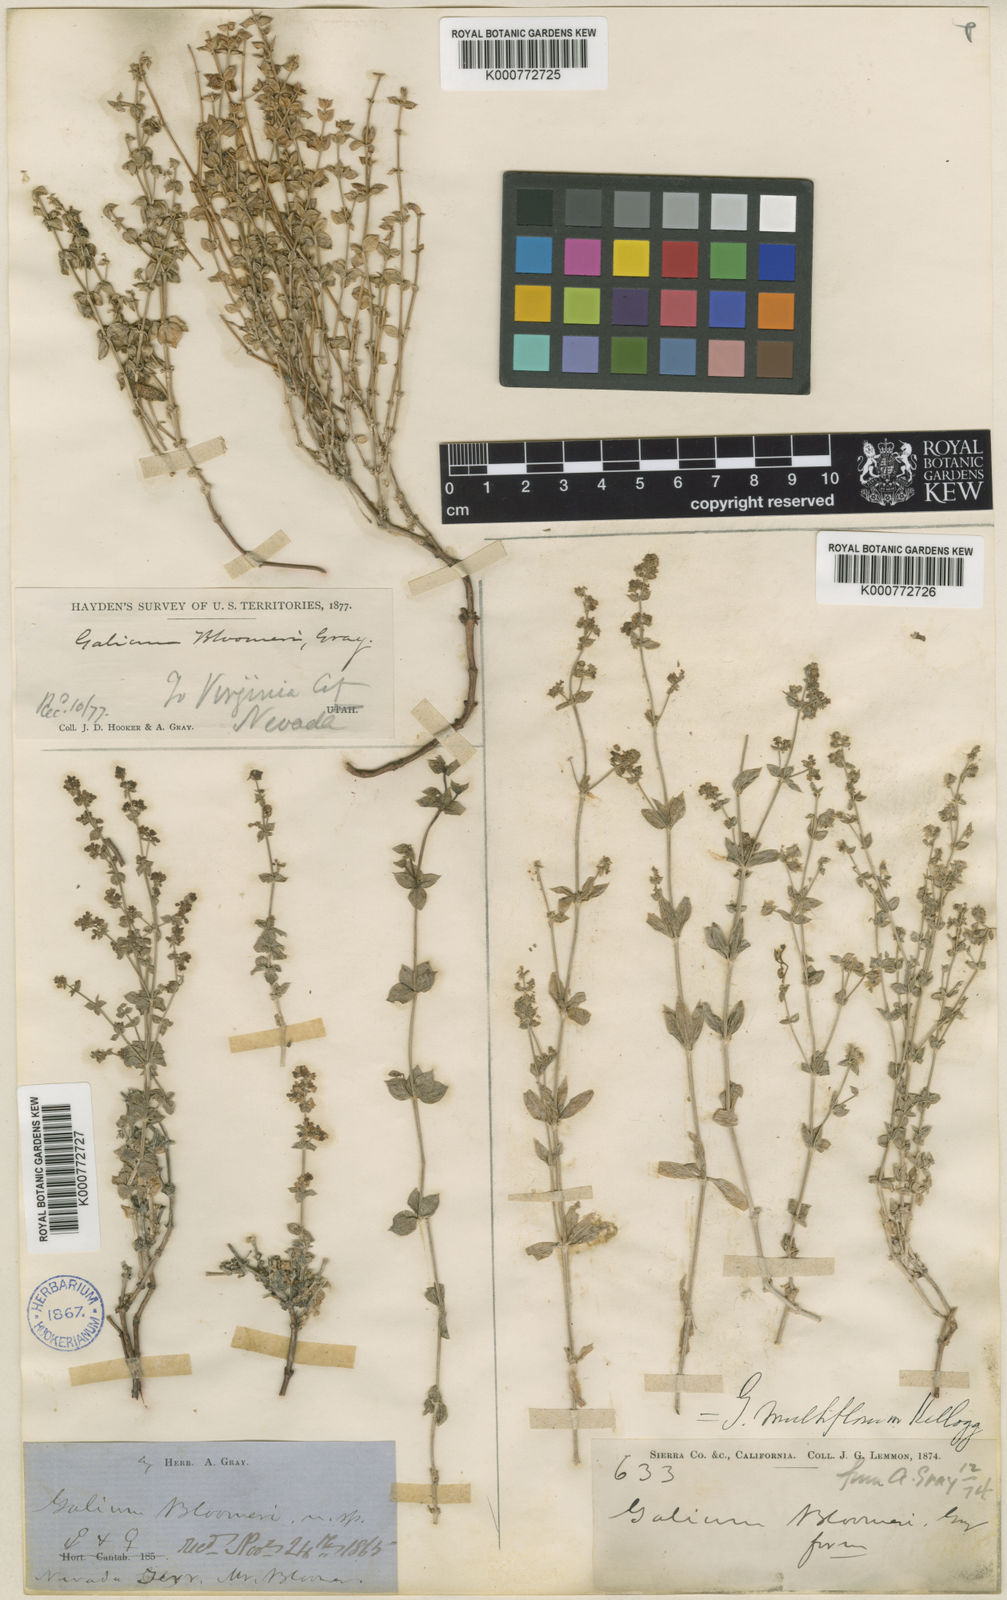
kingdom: Plantae
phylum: Tracheophyta
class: Magnoliopsida
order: Gentianales
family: Rubiaceae
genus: Galium
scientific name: Galium multiflorum
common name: Many-flowered bedstraw
